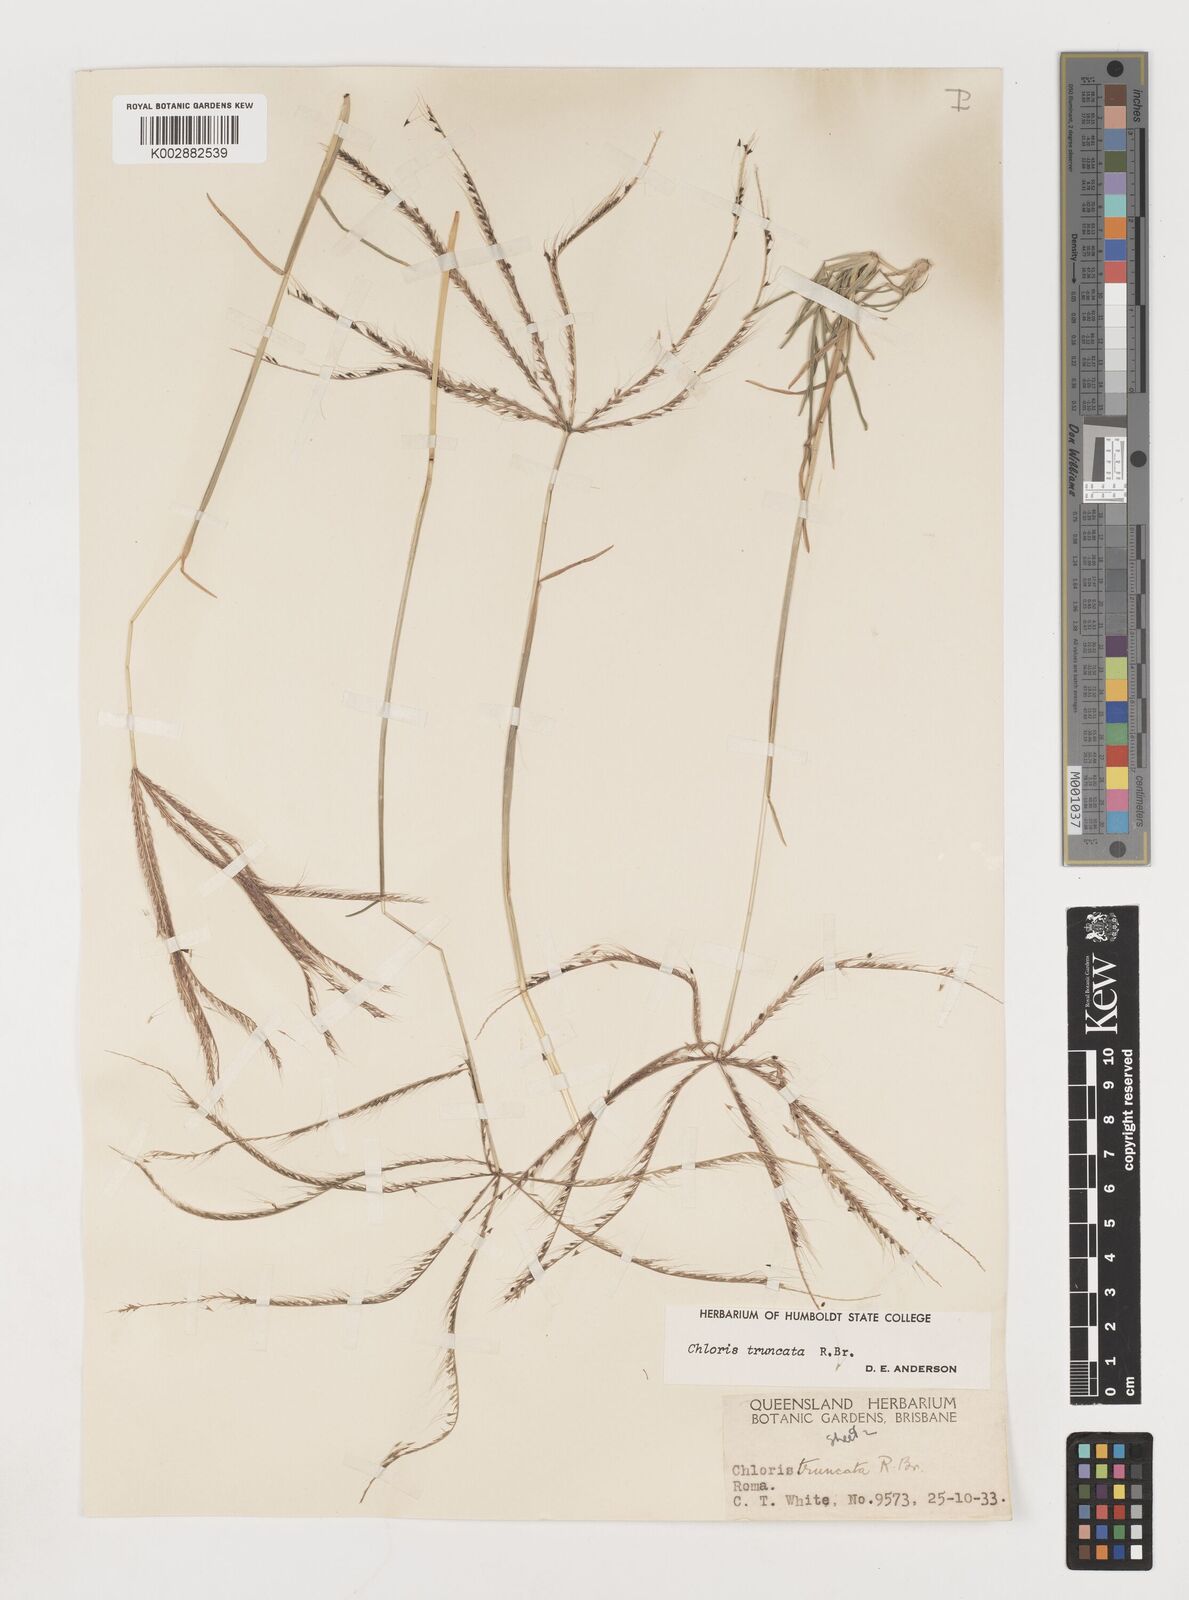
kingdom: Plantae
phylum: Tracheophyta
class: Liliopsida
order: Poales
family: Poaceae
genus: Chloris
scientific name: Chloris truncata
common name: Windmill-grass
